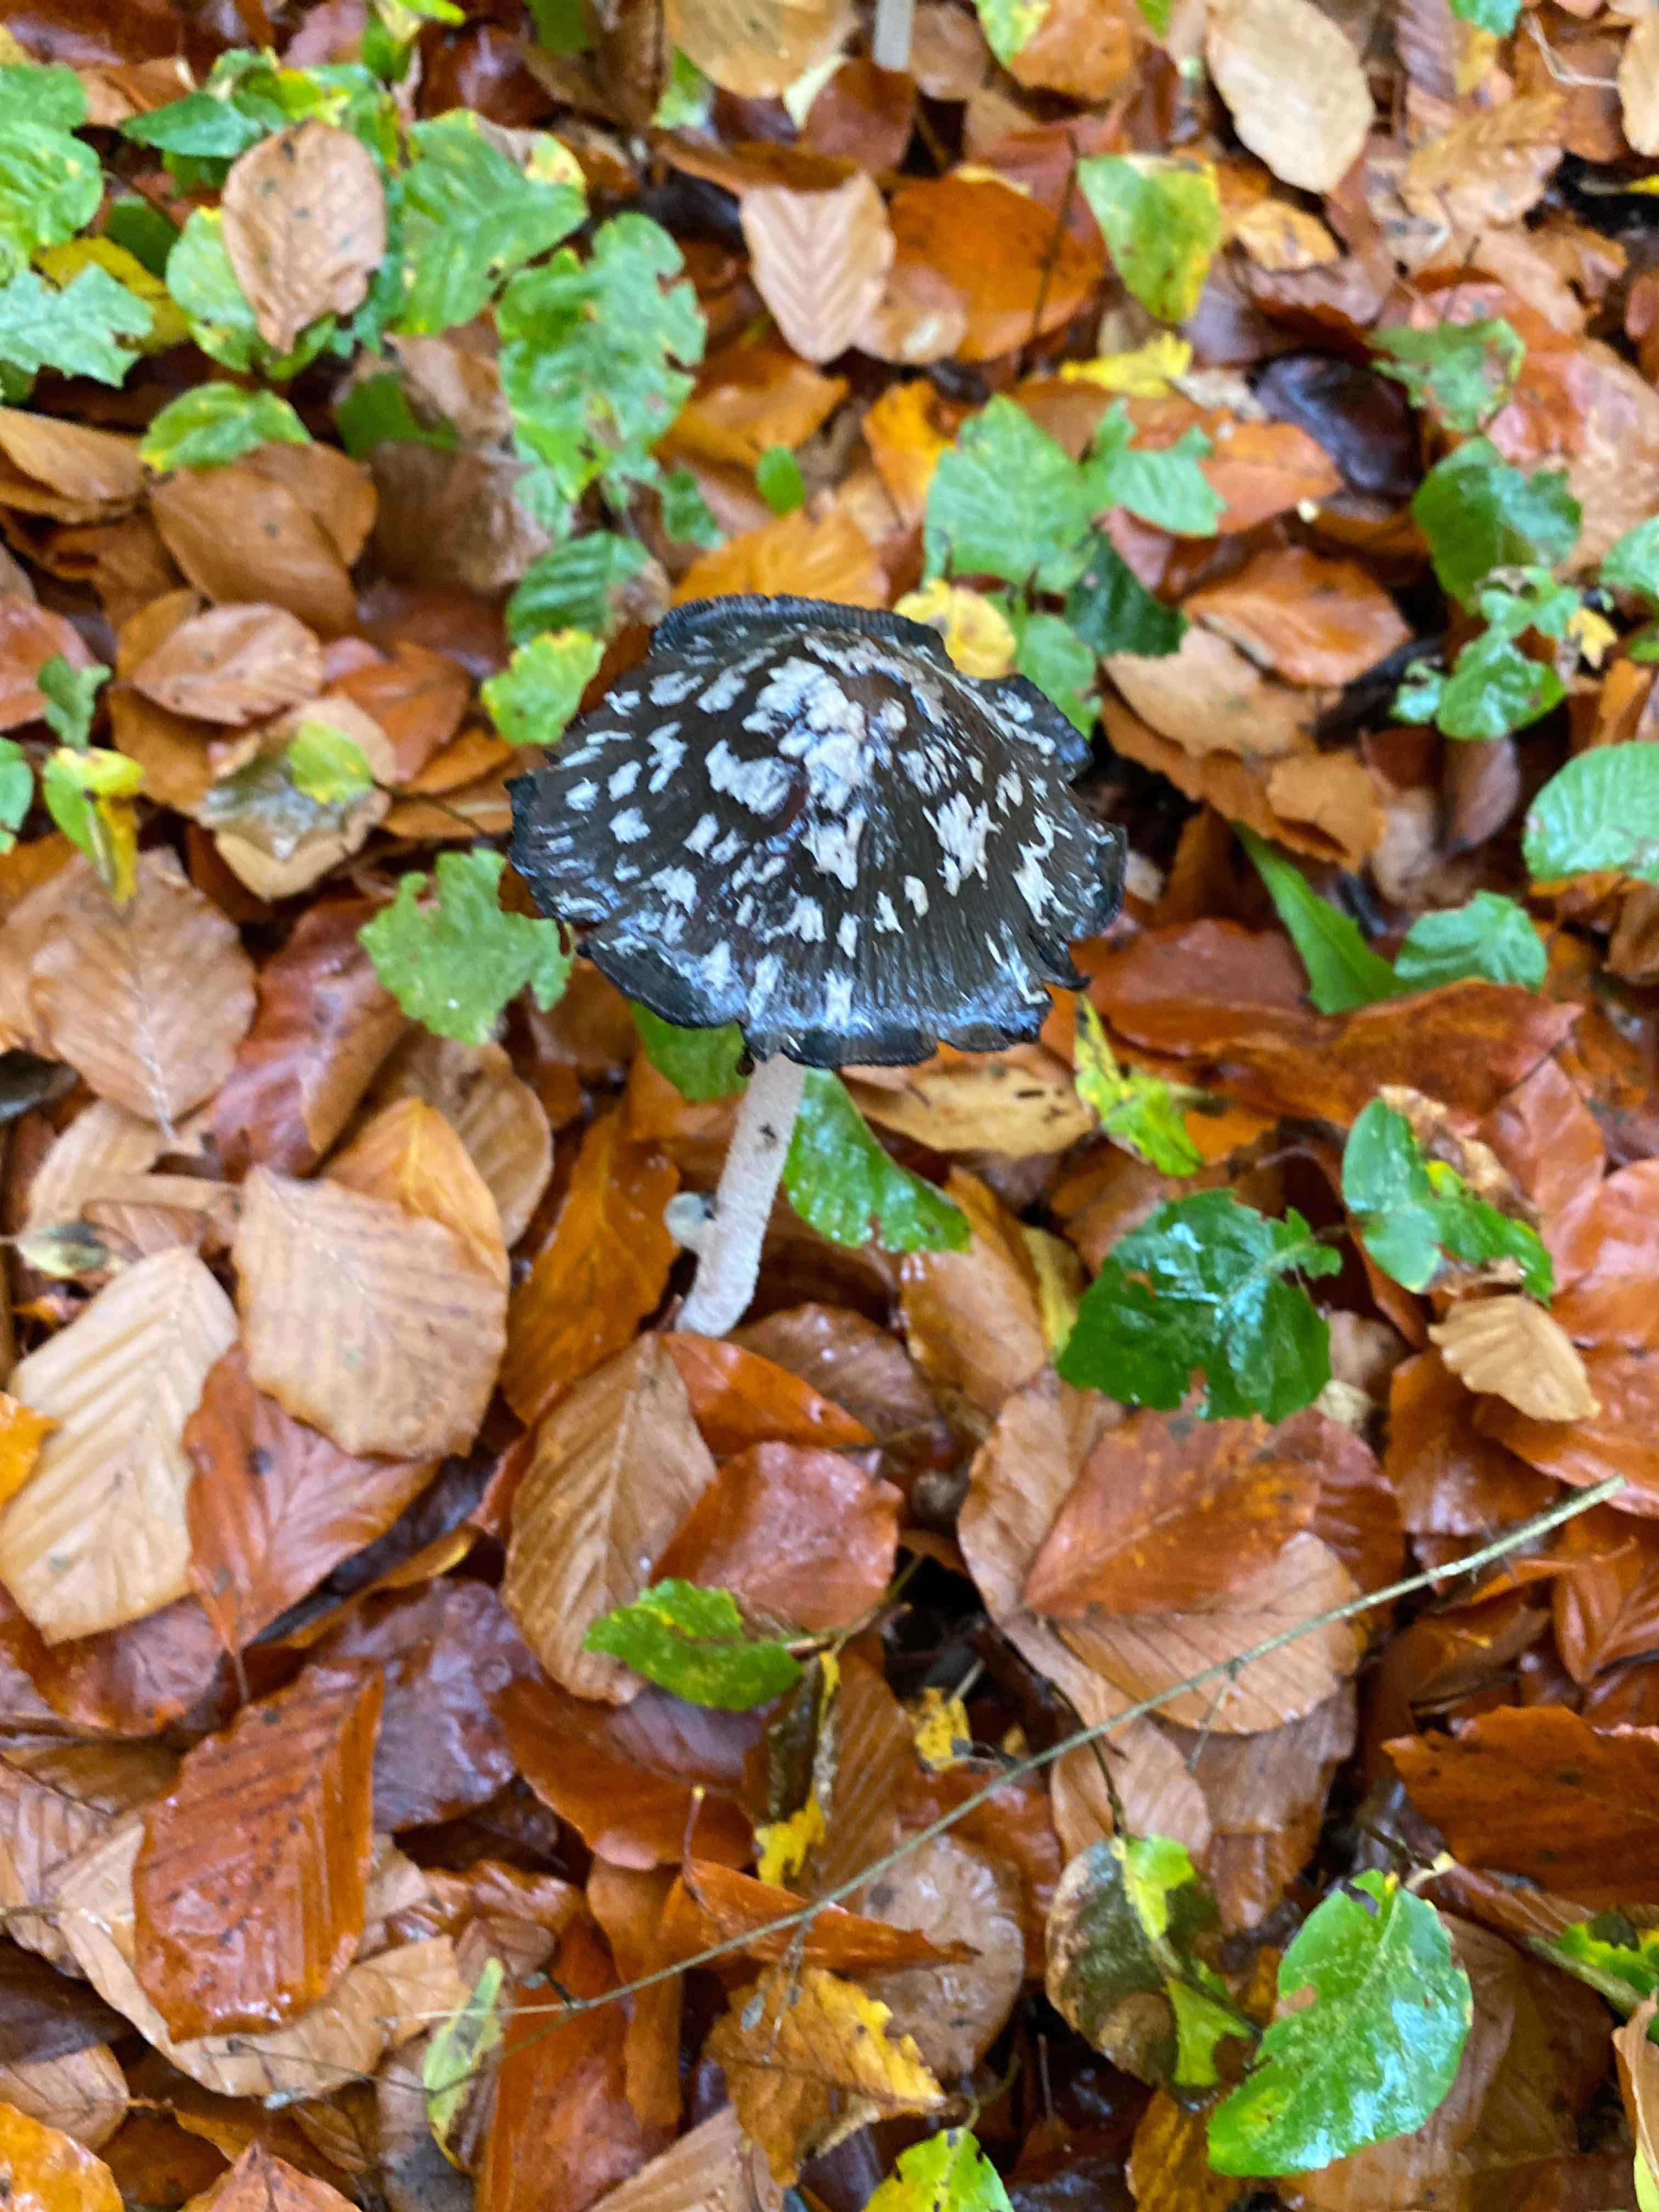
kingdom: Fungi
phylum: Basidiomycota
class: Agaricomycetes
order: Agaricales
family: Psathyrellaceae
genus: Coprinopsis
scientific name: Coprinopsis picacea
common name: skade-blækhat
